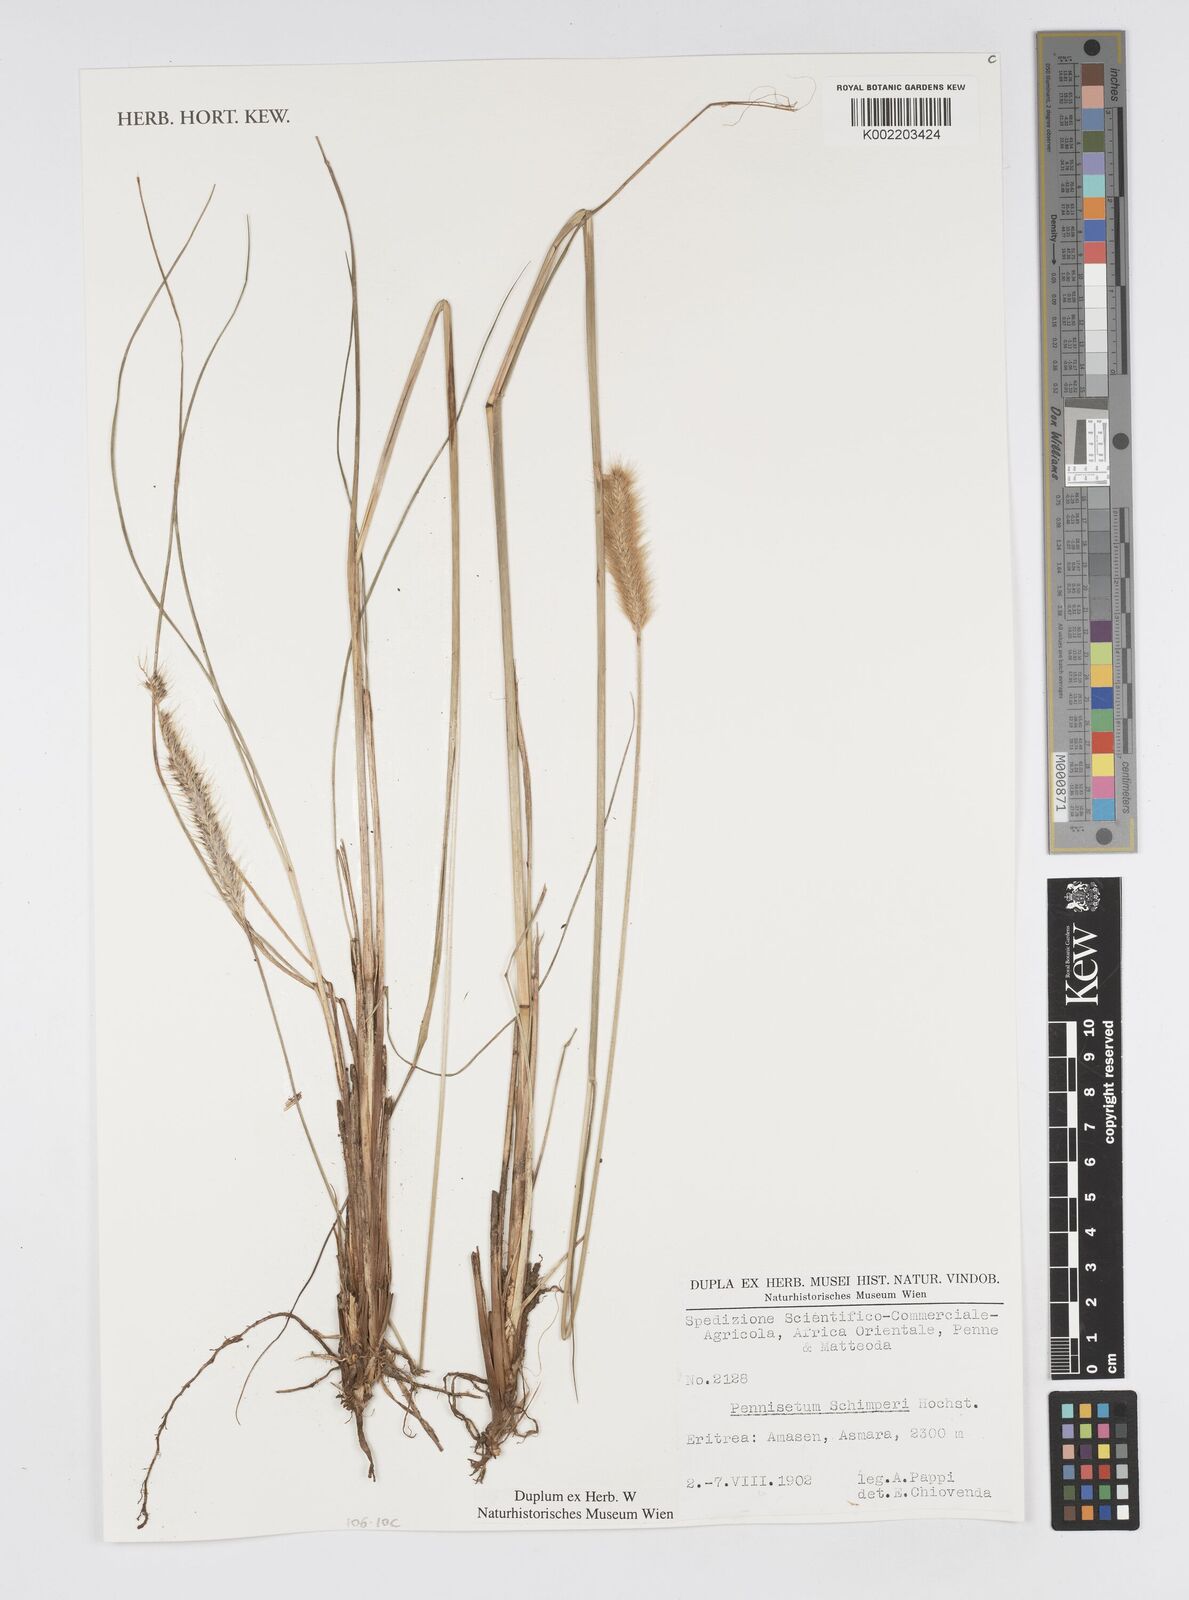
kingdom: Plantae
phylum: Tracheophyta
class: Liliopsida
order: Poales
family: Poaceae
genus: Cenchrus
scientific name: Cenchrus sphacelatus
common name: Bulgras
